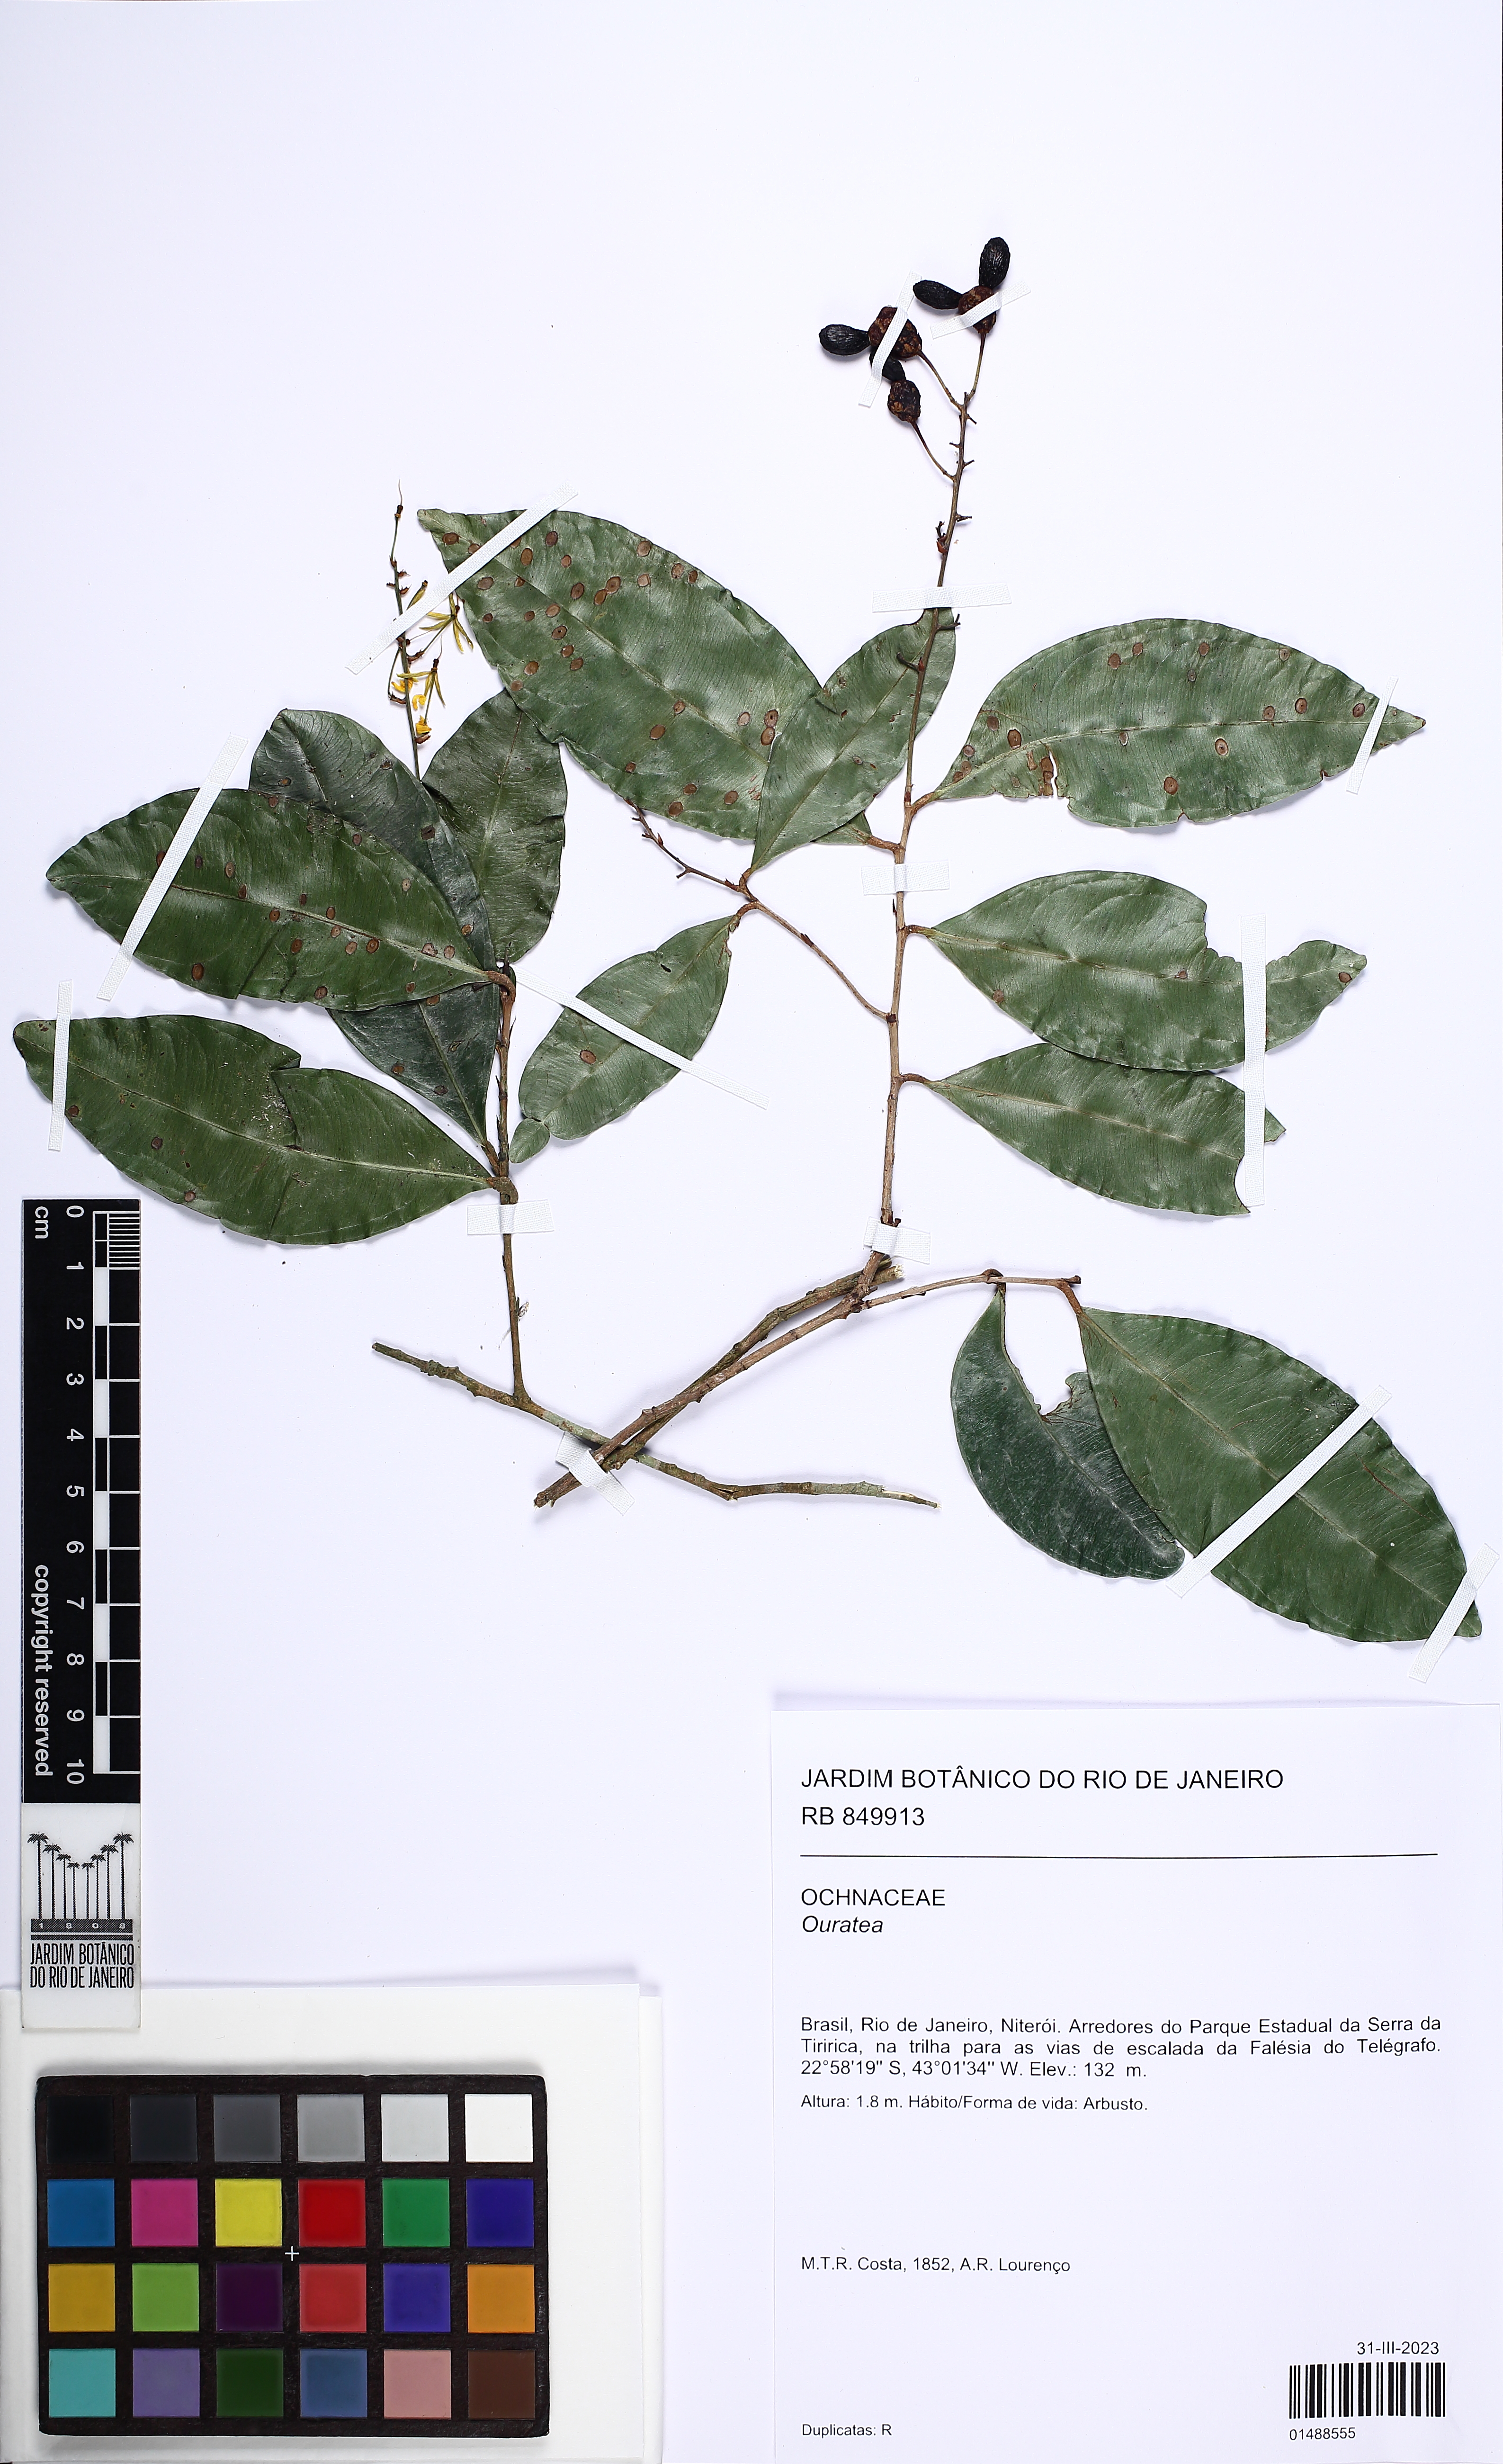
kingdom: Plantae
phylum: Tracheophyta
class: Magnoliopsida
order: Malpighiales
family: Ochnaceae
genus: Ouratea
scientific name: Ouratea
